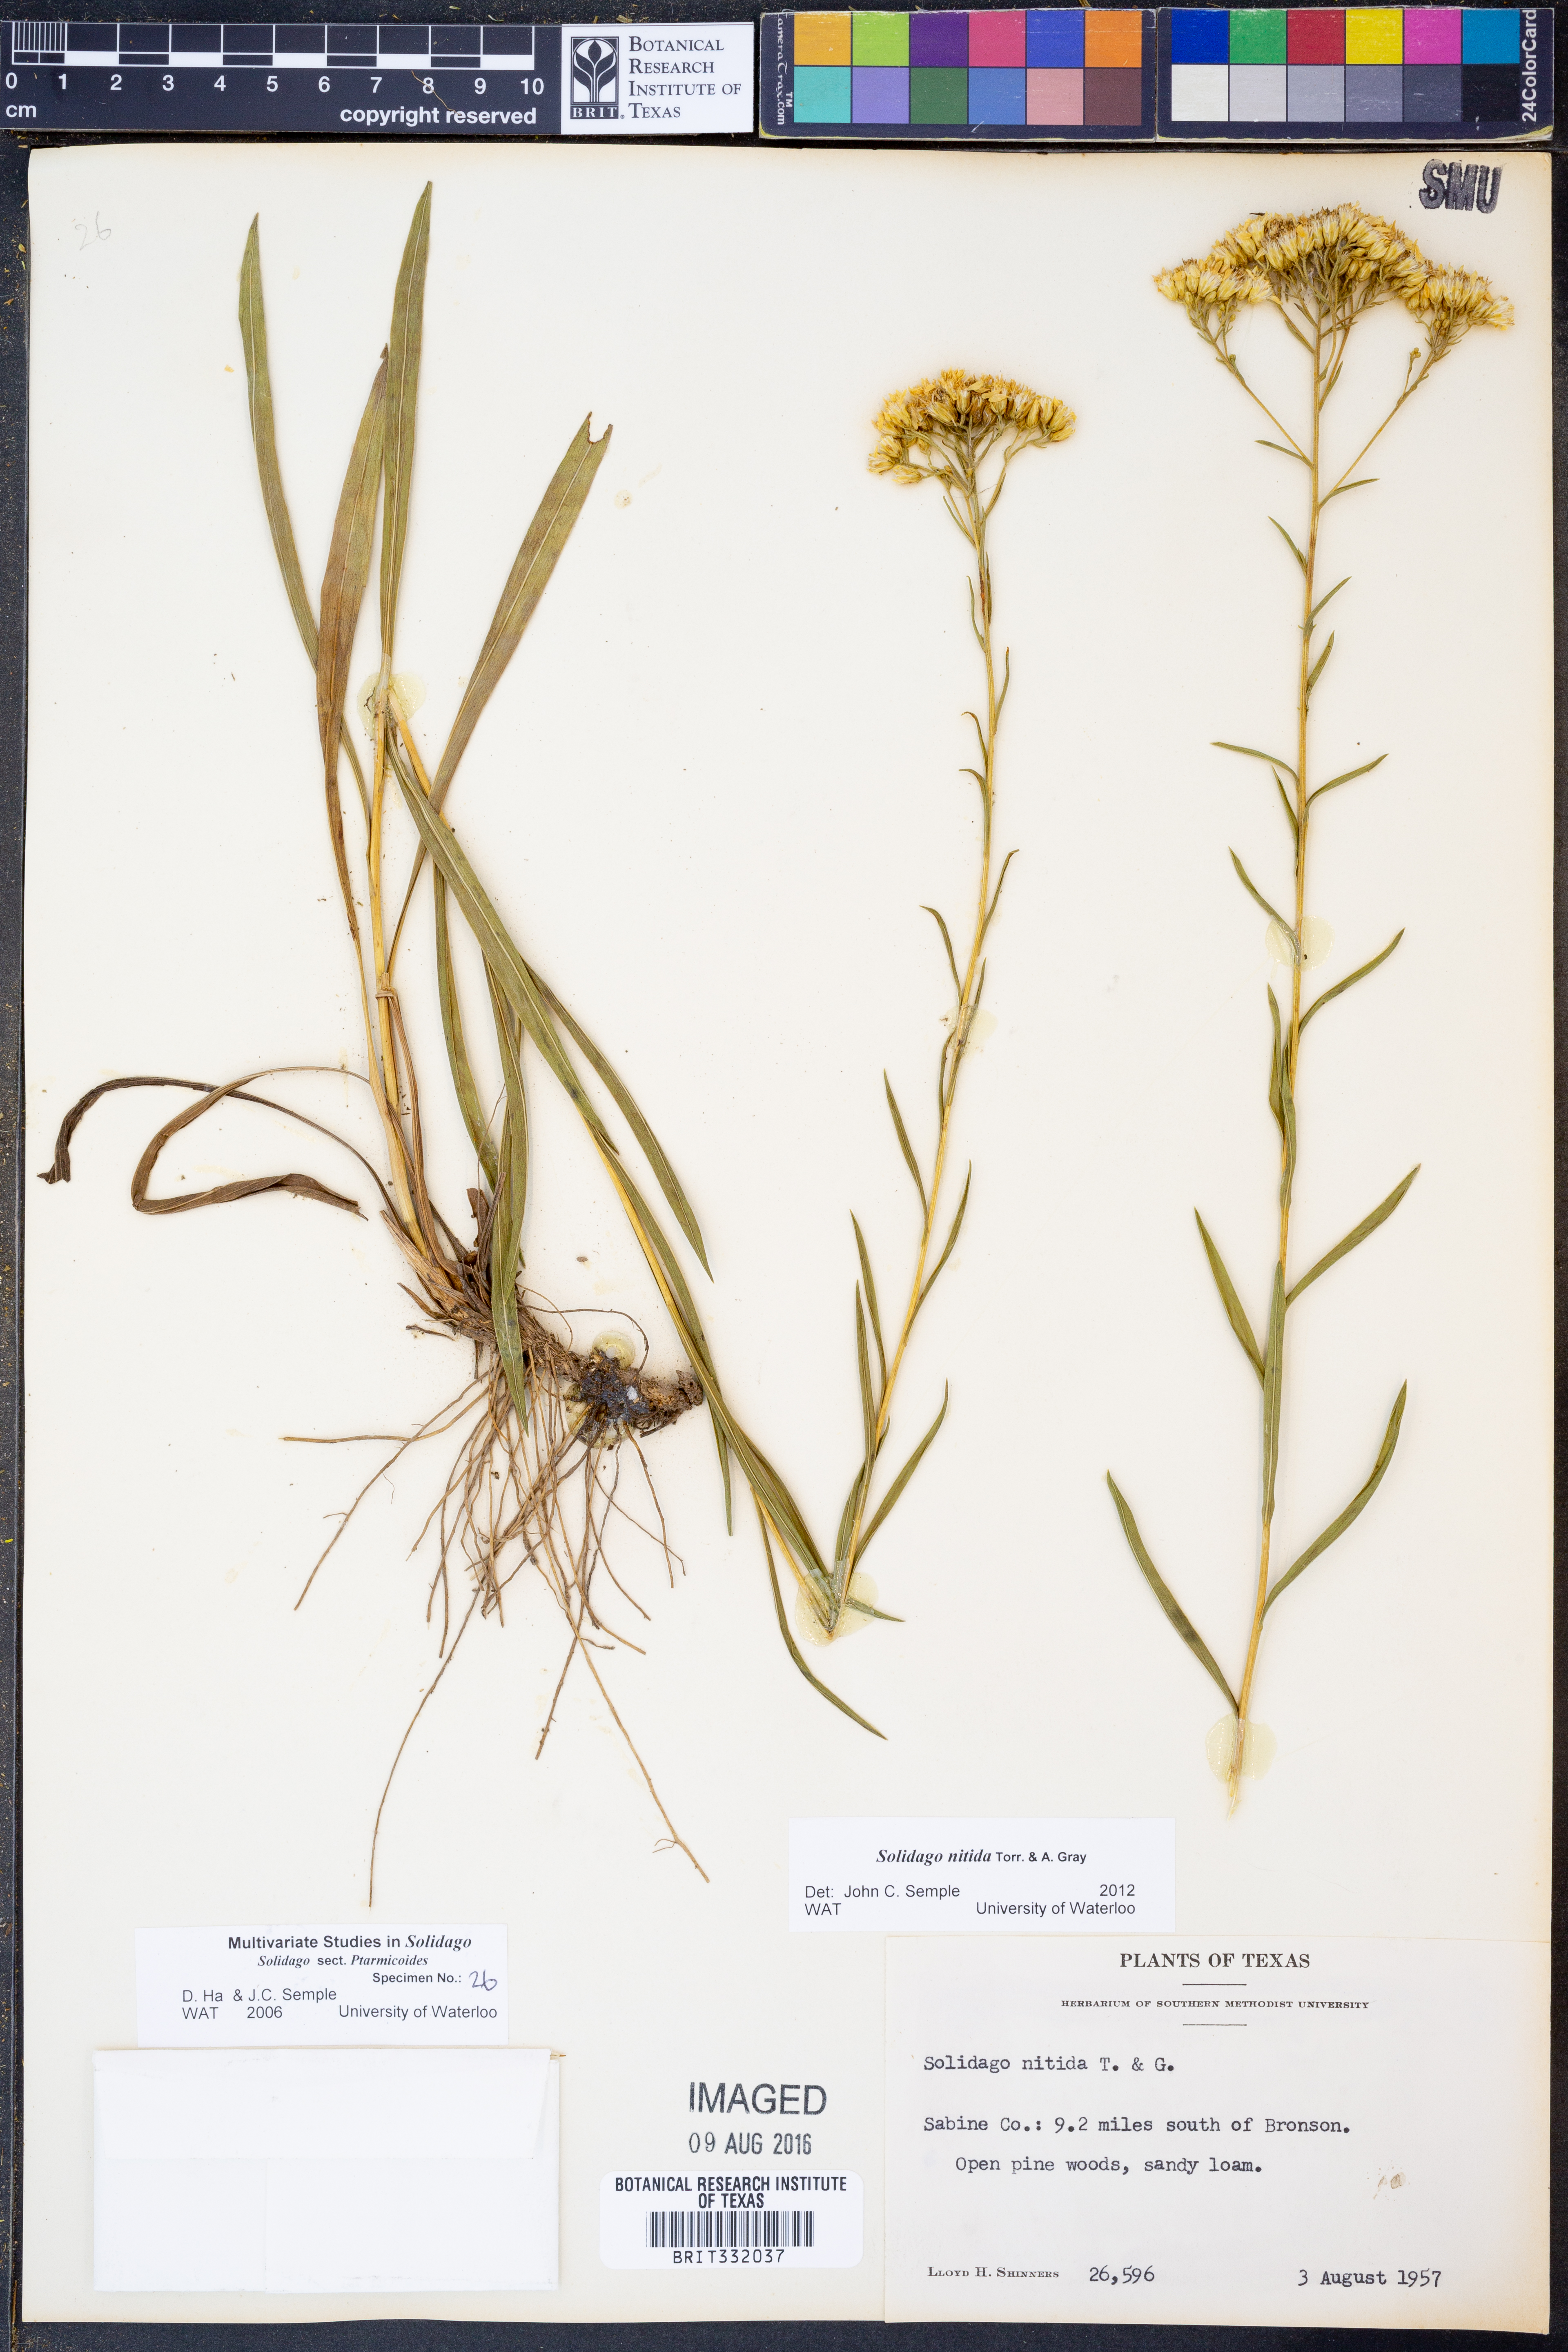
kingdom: Plantae
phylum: Tracheophyta
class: Magnoliopsida
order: Asterales
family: Asteraceae
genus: Solidago
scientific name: Solidago nitida
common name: Shiny goldenrod
